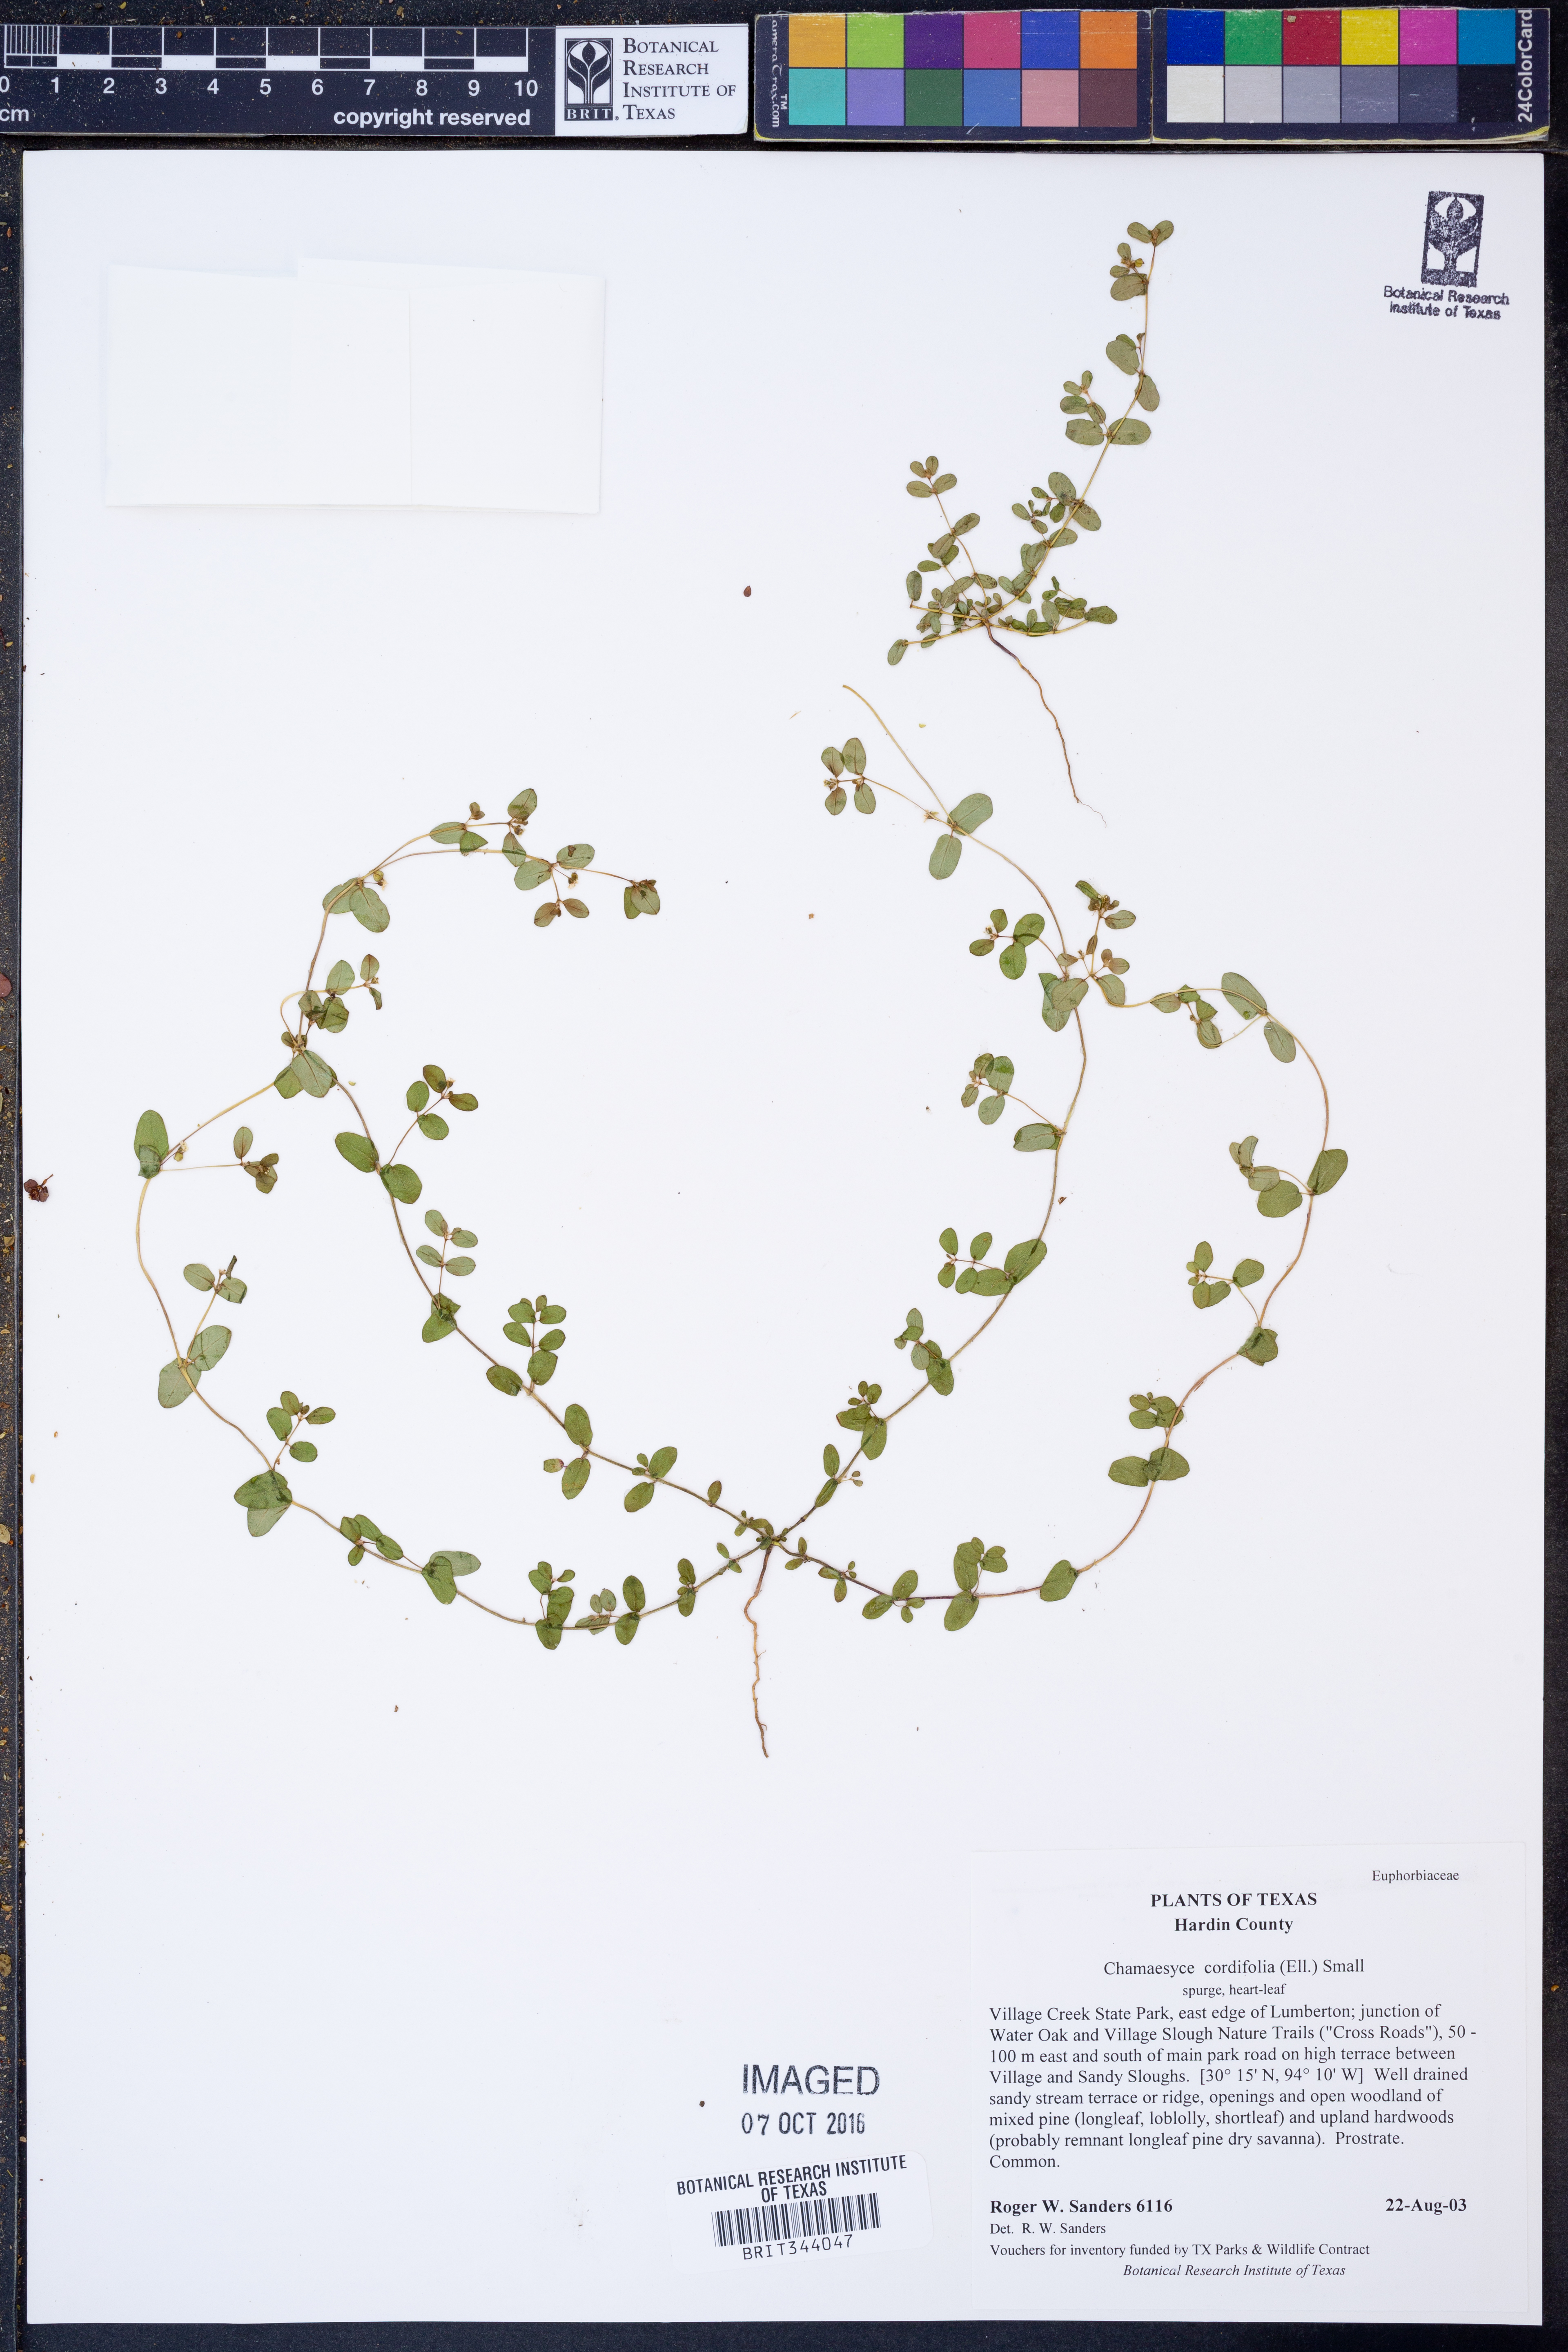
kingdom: Plantae
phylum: Tracheophyta
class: Magnoliopsida
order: Malpighiales
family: Euphorbiaceae
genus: Euphorbia
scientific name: Euphorbia cordifolia
